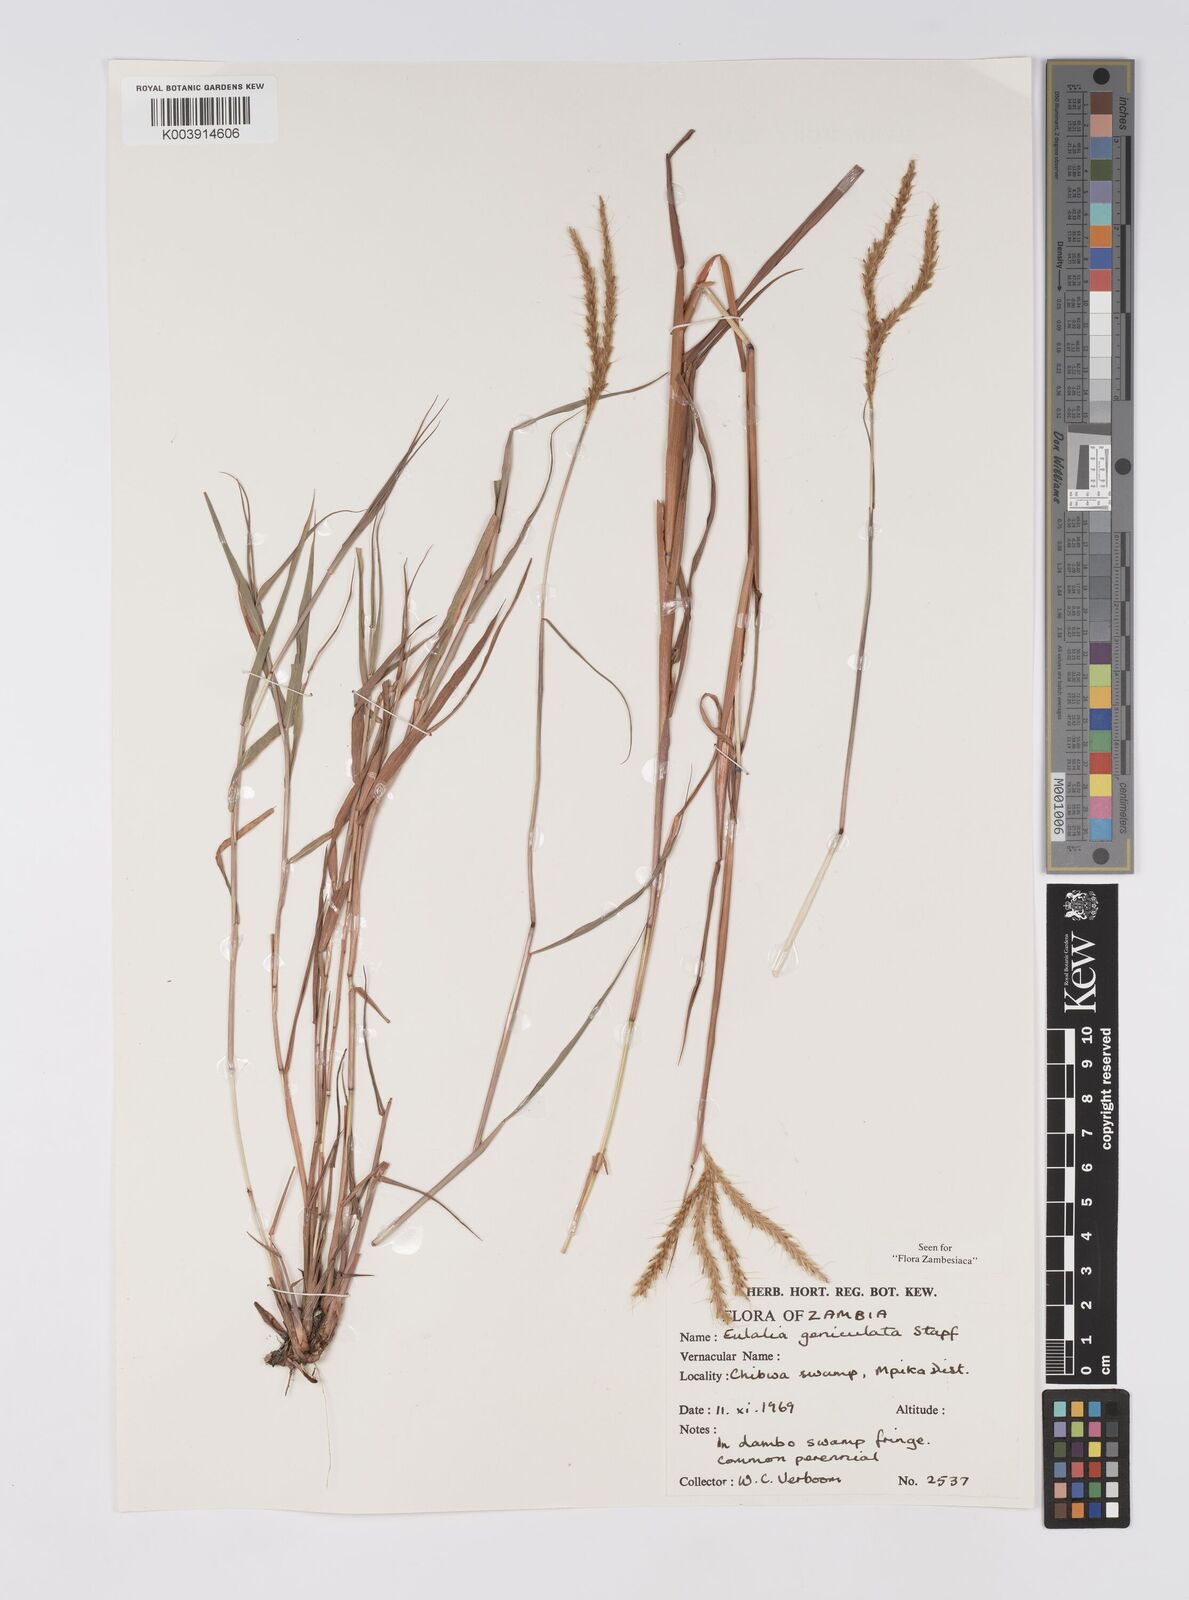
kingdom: Plantae
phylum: Tracheophyta
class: Liliopsida
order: Poales
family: Poaceae
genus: Eulalia
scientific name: Eulalia aurea
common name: Silky browntop
